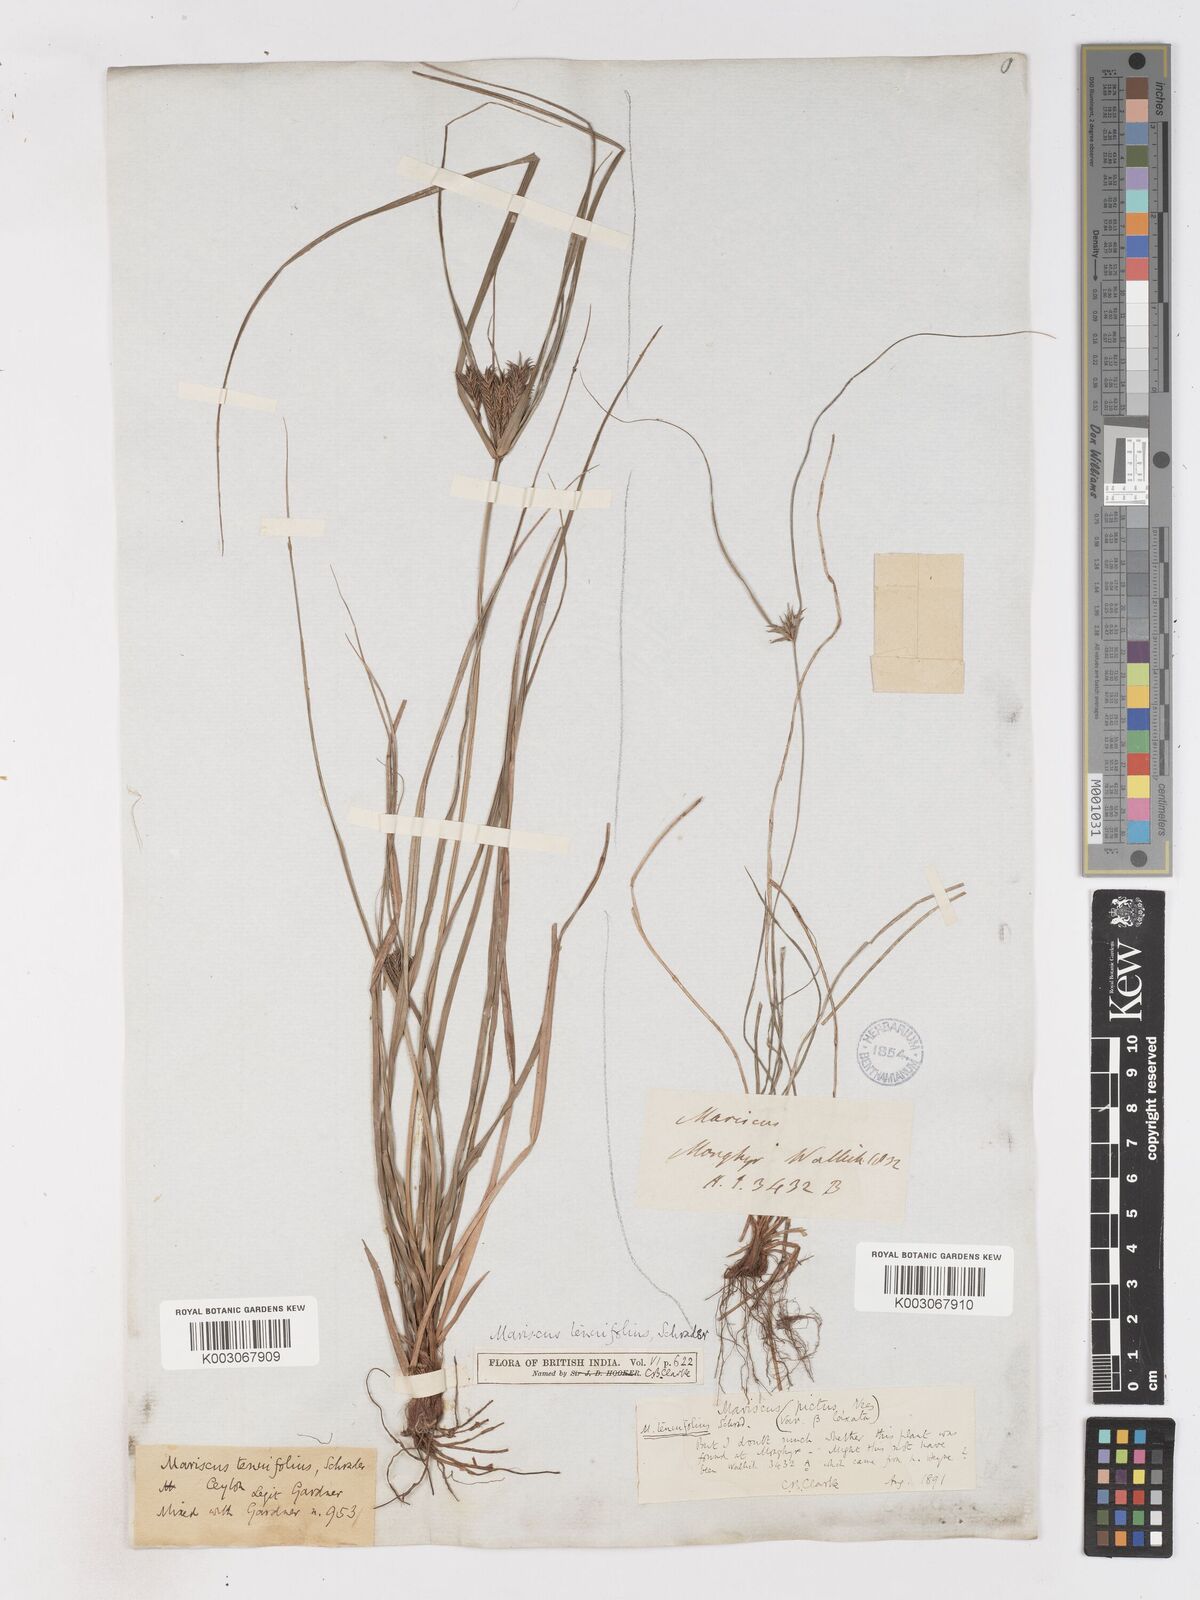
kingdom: Plantae
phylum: Tracheophyta
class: Liliopsida
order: Poales
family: Cyperaceae
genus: Cyperus
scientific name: Cyperus cyperinus
